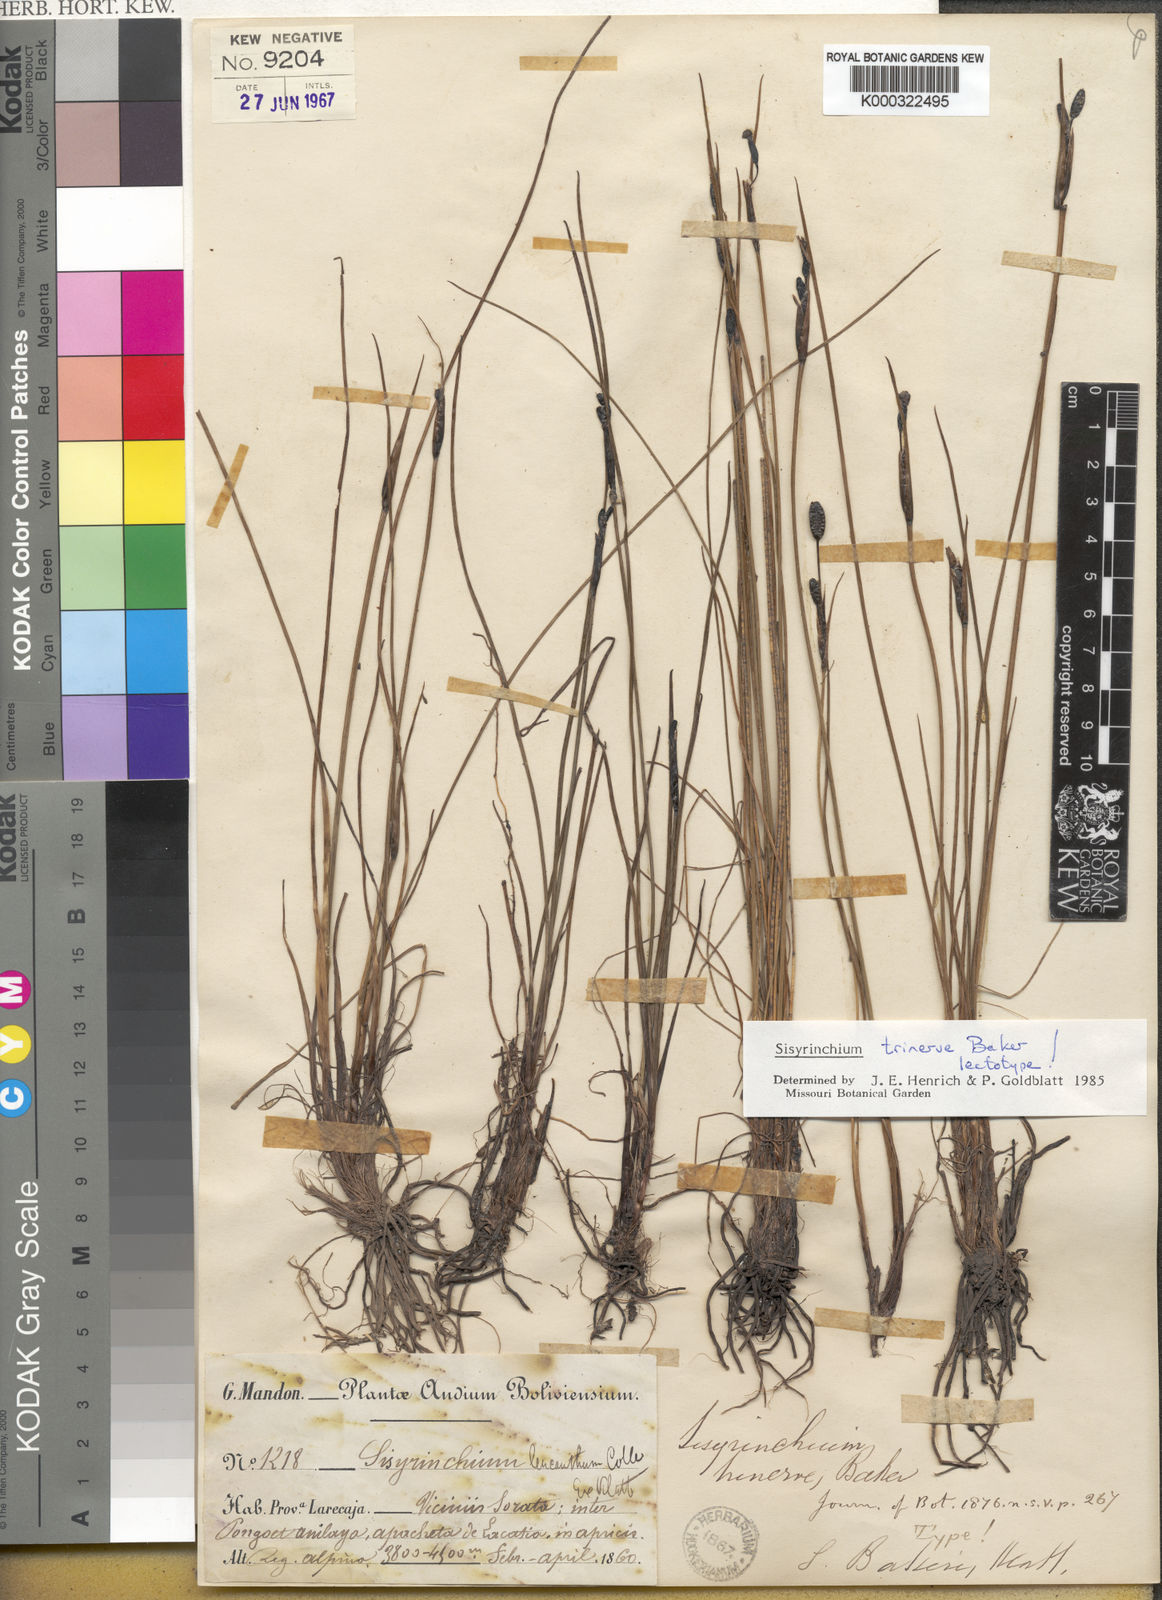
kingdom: Plantae
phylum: Tracheophyta
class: Liliopsida
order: Asparagales
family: Iridaceae
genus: Olsynium
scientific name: Olsynium trinerve
